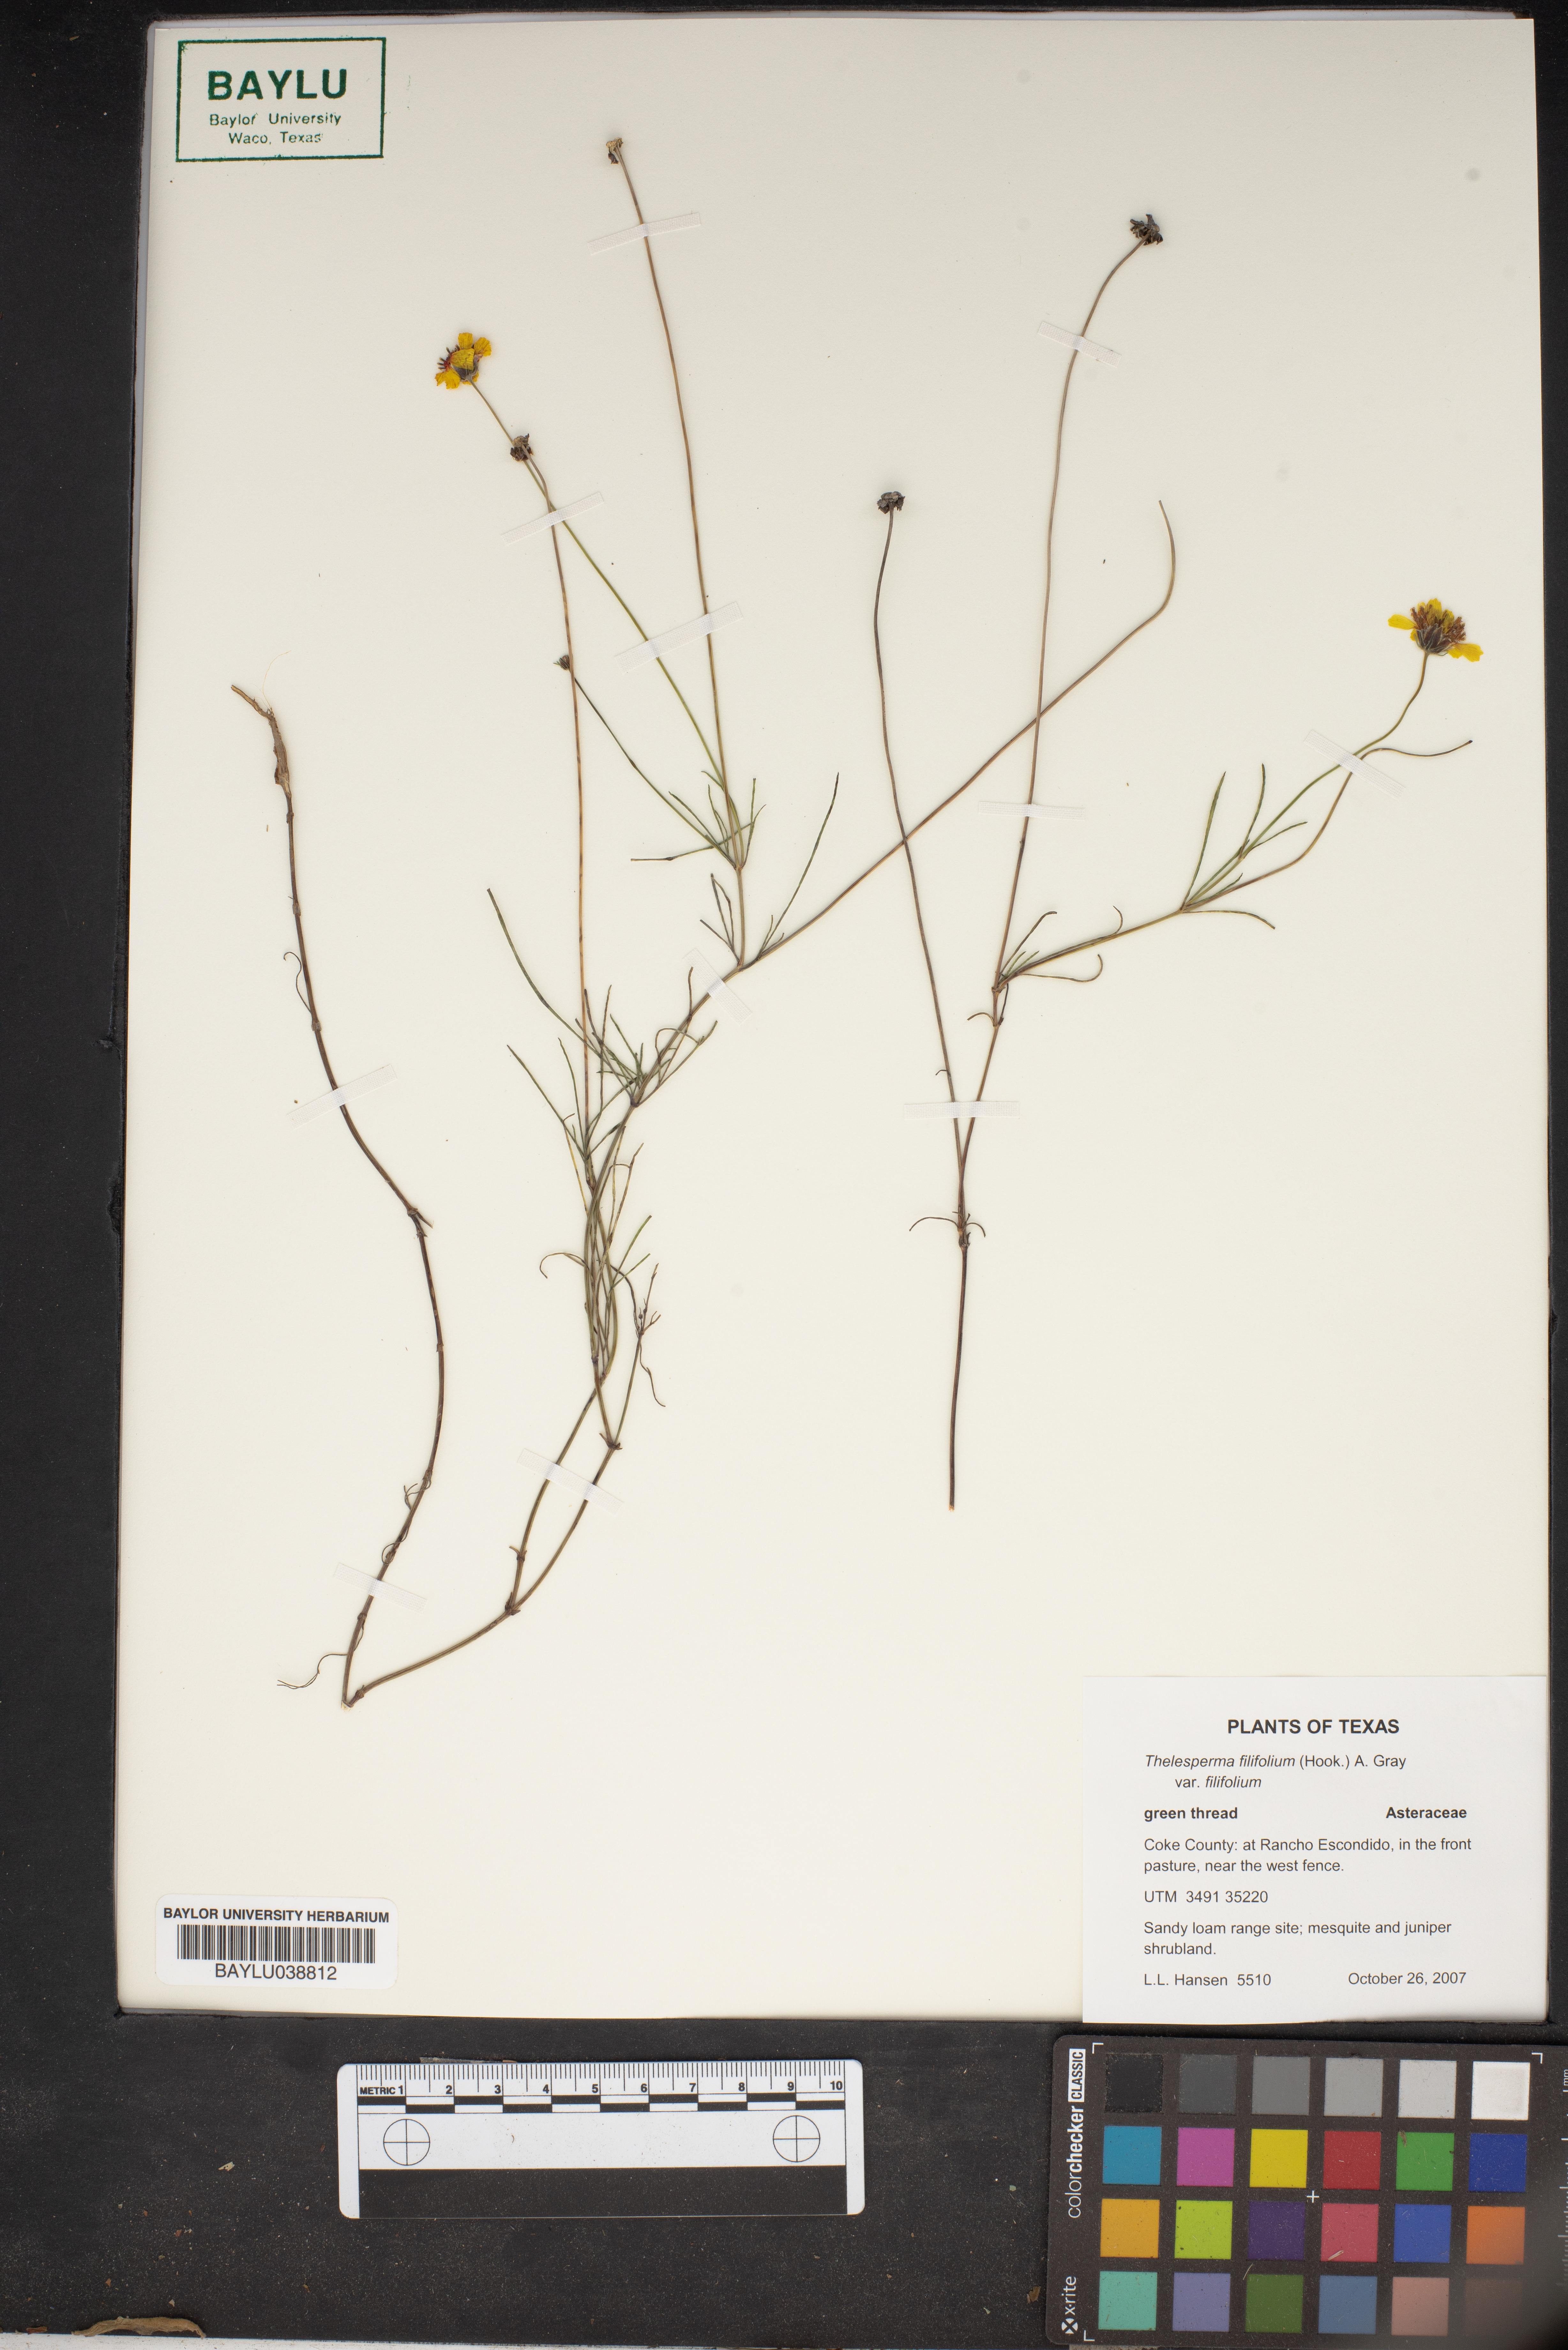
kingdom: Plantae
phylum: Tracheophyta
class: Magnoliopsida
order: Asterales
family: Asteraceae
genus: Thelesperma
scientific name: Thelesperma filifolium
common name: Stiff greenthread
